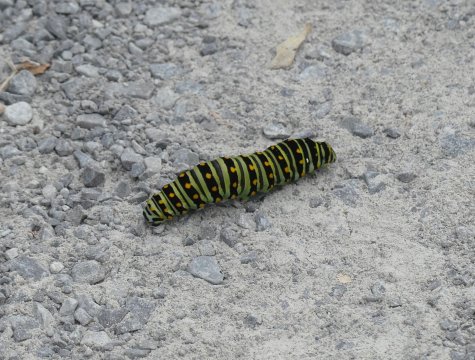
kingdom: Animalia
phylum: Arthropoda
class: Insecta
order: Lepidoptera
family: Papilionidae
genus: Papilio
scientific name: Papilio polyxenes
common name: Black Swallowtail
